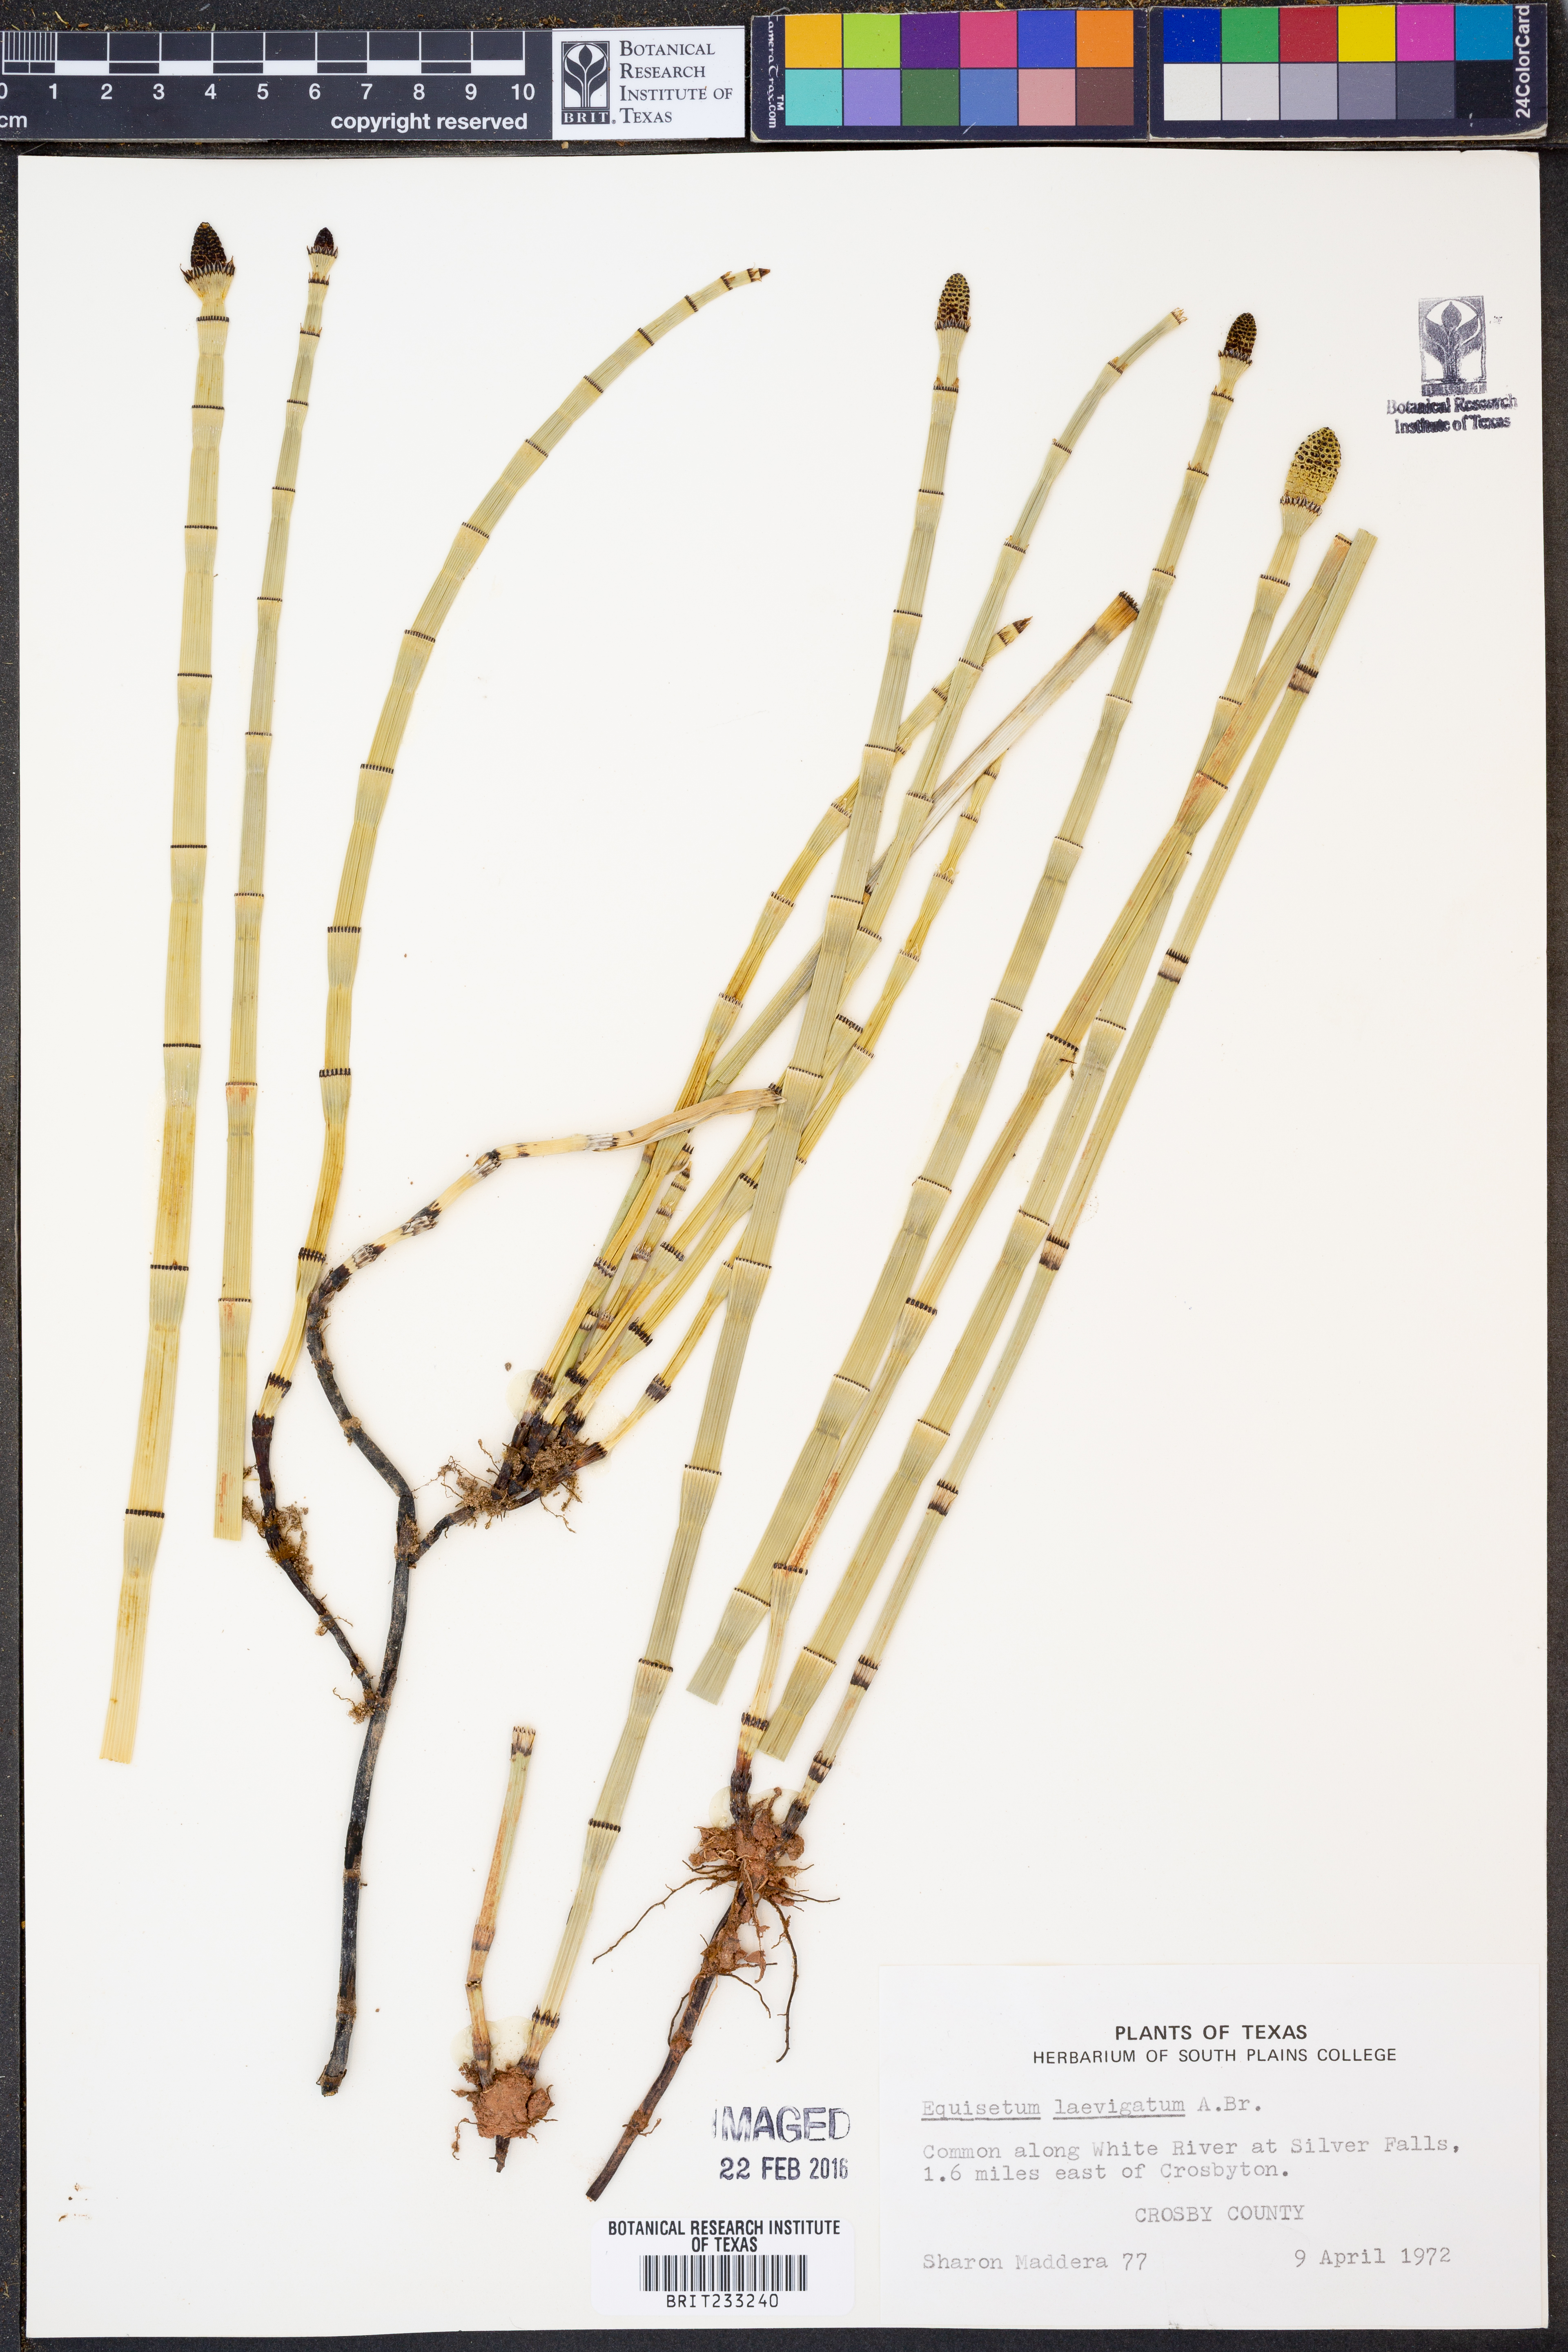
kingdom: Plantae
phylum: Tracheophyta
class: Polypodiopsida
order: Equisetales
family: Equisetaceae
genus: Equisetum
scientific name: Equisetum laevigatum
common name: Smooth scouring-rush
